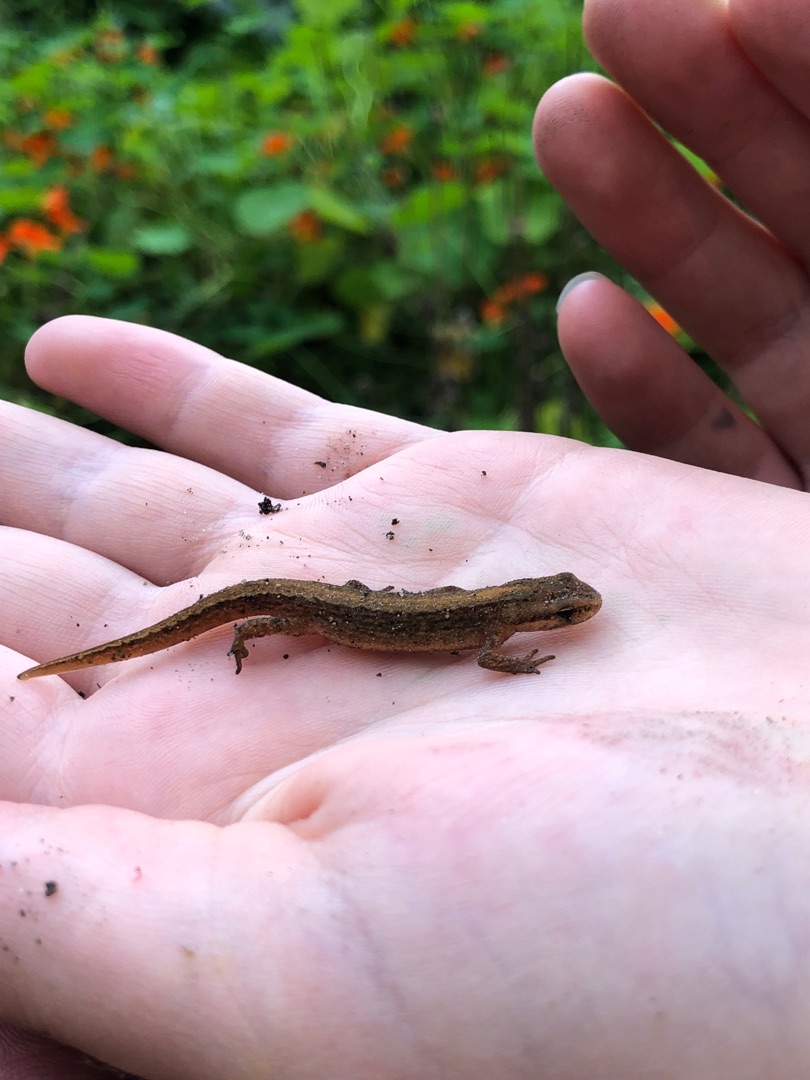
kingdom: Animalia
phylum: Chordata
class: Amphibia
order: Caudata
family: Salamandridae
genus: Lissotriton
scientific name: Lissotriton vulgaris
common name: Lille vandsalamander
